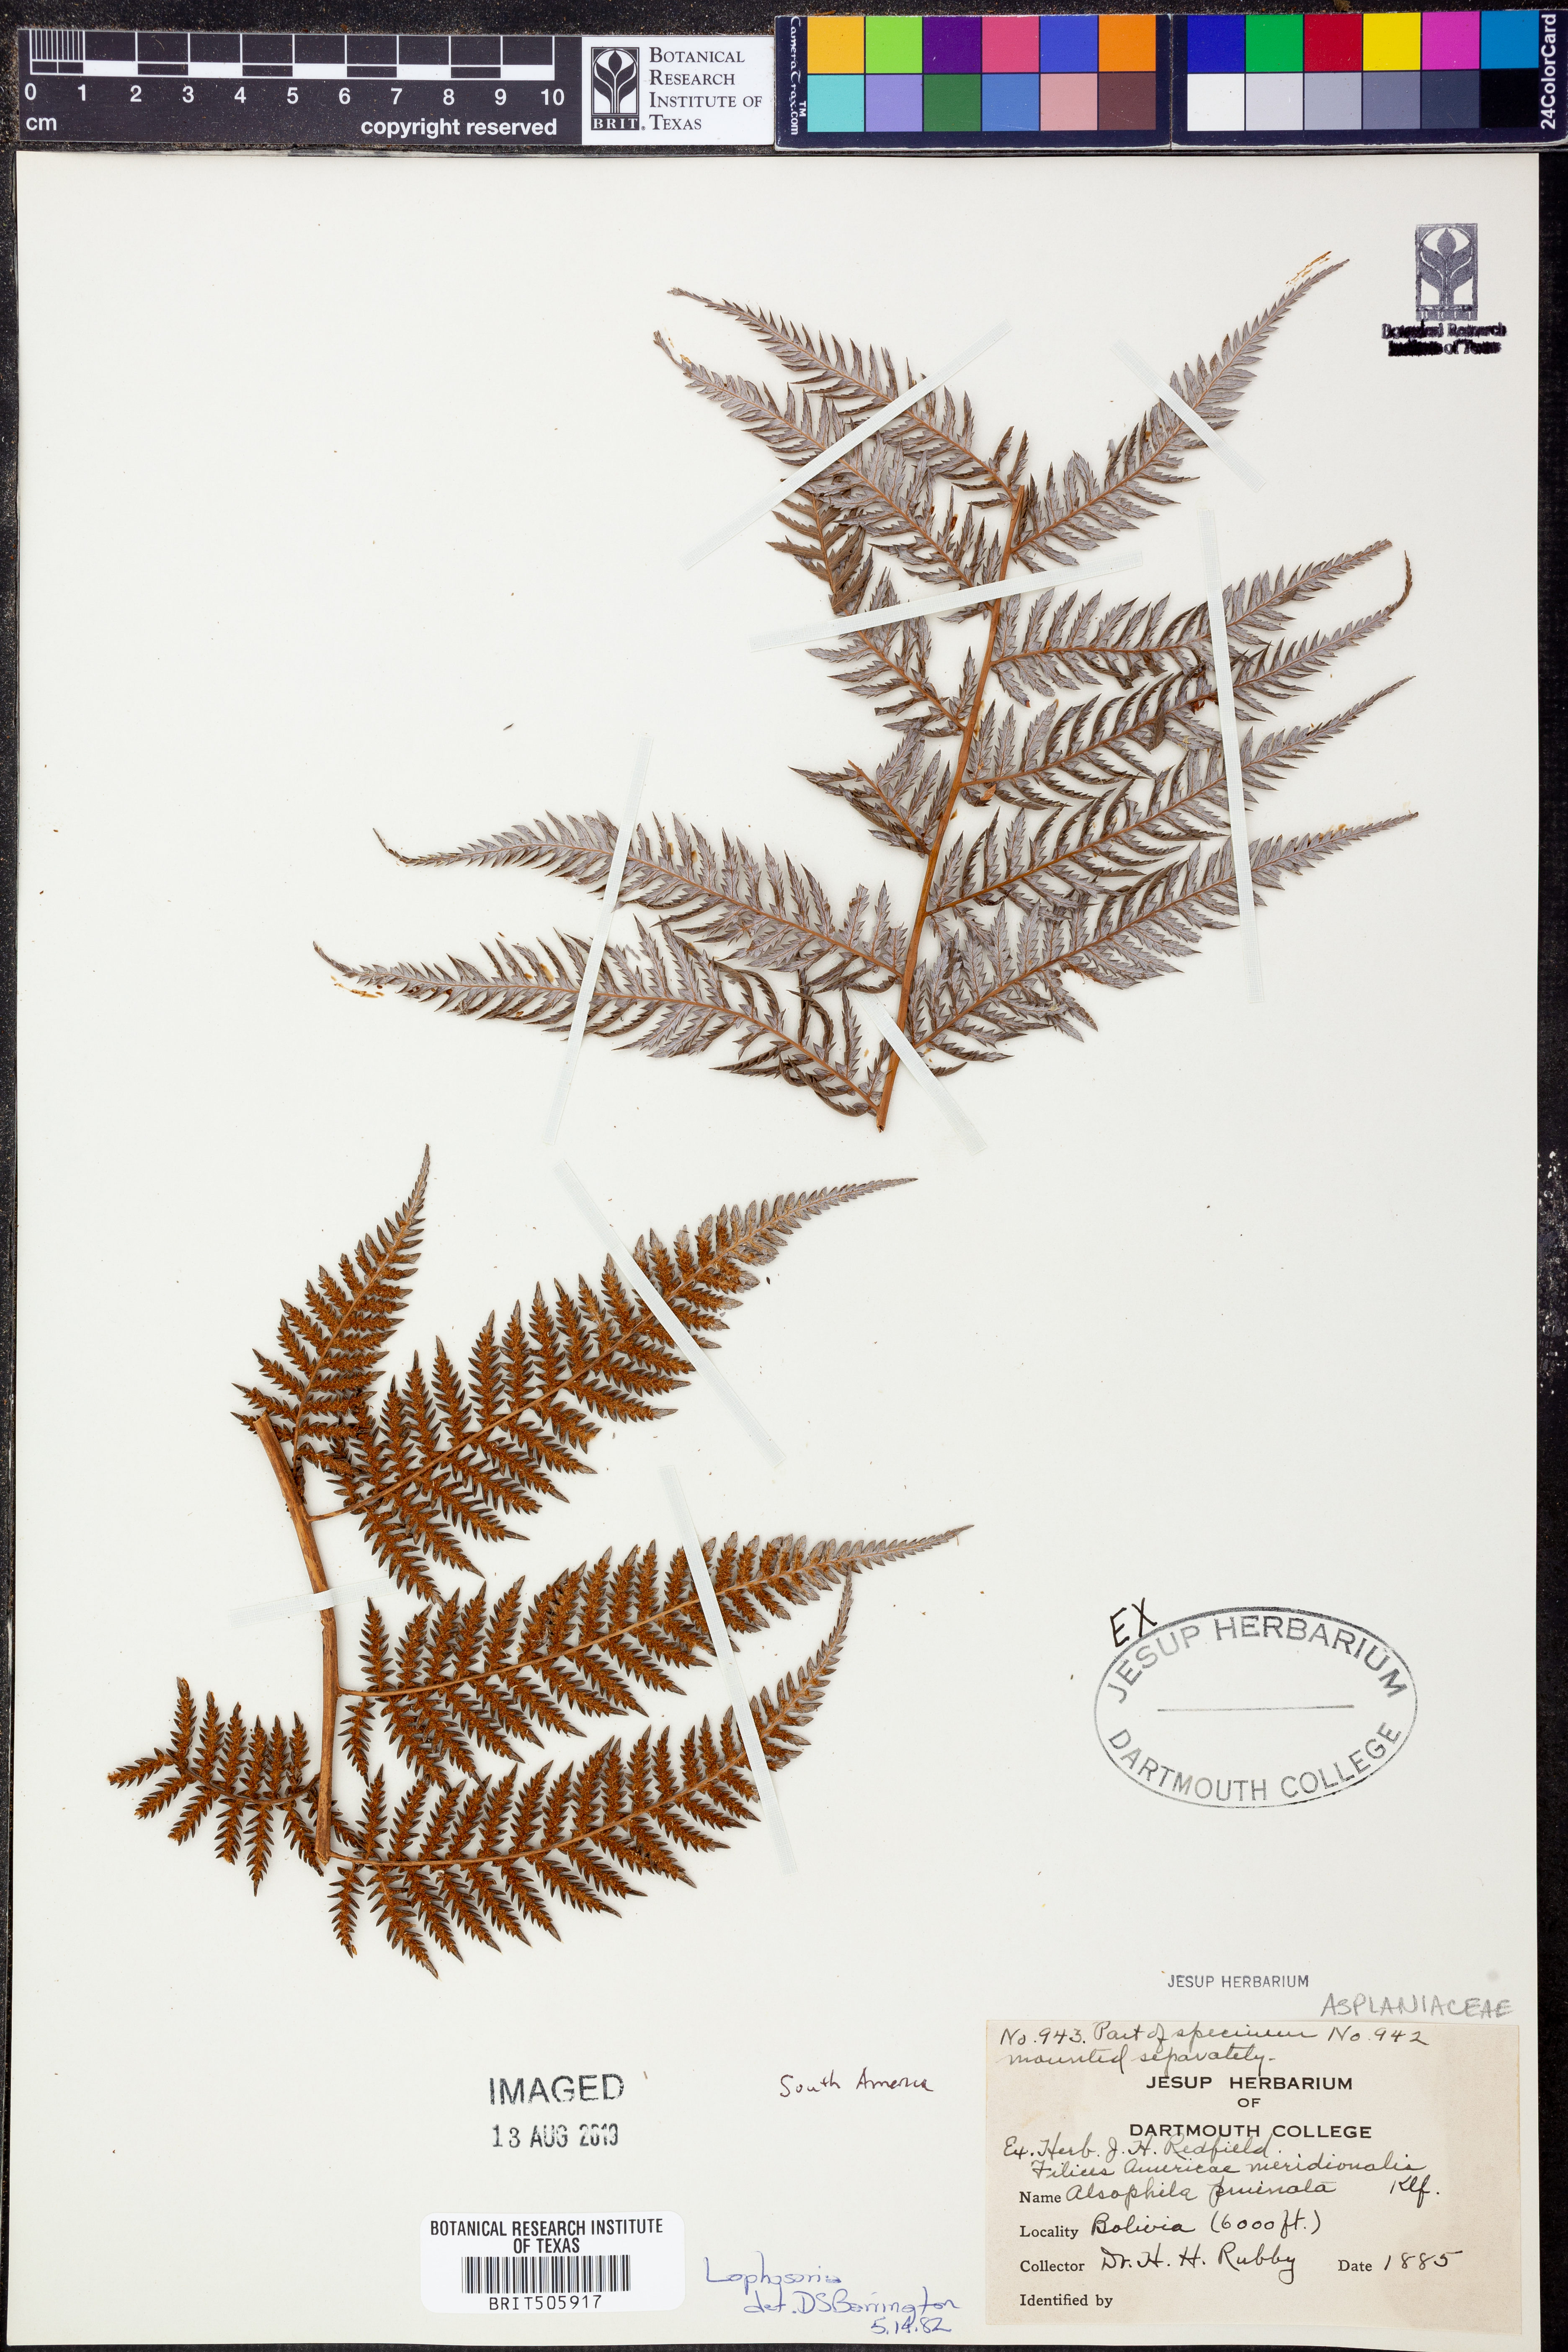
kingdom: Plantae
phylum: Tracheophyta
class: Polypodiopsida
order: Cyatheales
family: Dicksoniaceae
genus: Lophosoria
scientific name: Lophosoria
